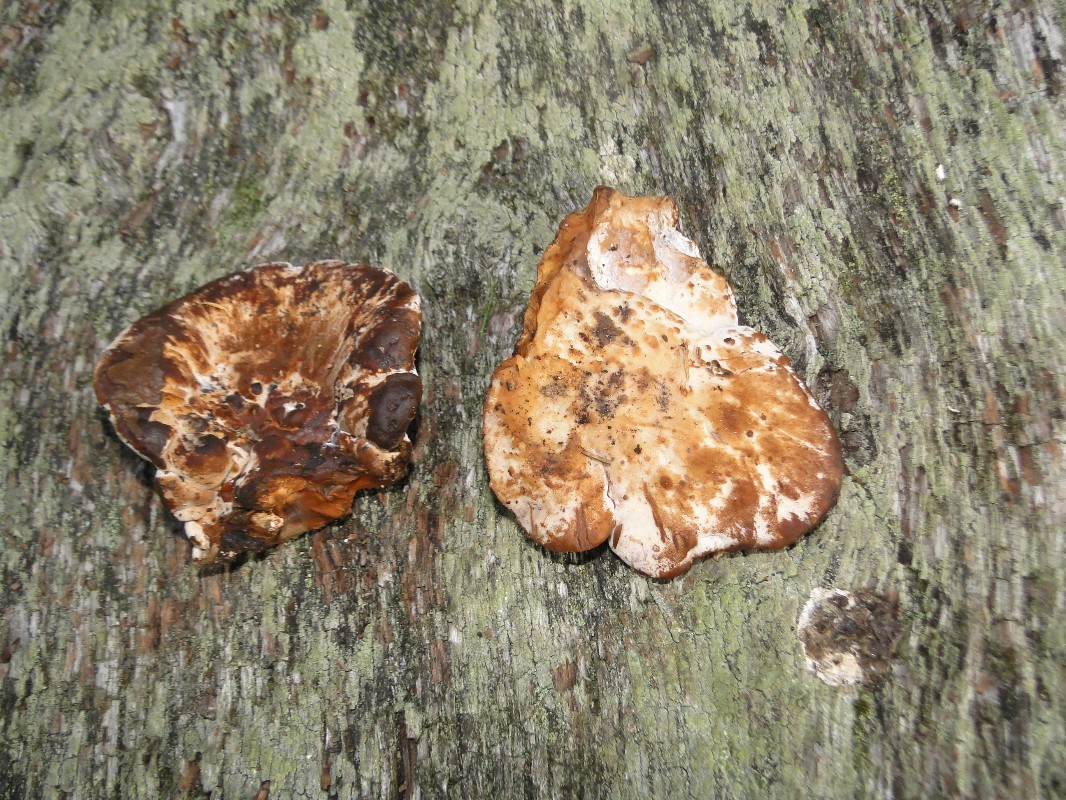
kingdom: Fungi
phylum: Basidiomycota
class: Agaricomycetes
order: Polyporales
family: Ischnodermataceae
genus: Ischnoderma
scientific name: Ischnoderma resinosum
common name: løv-tjæreporesvamp
